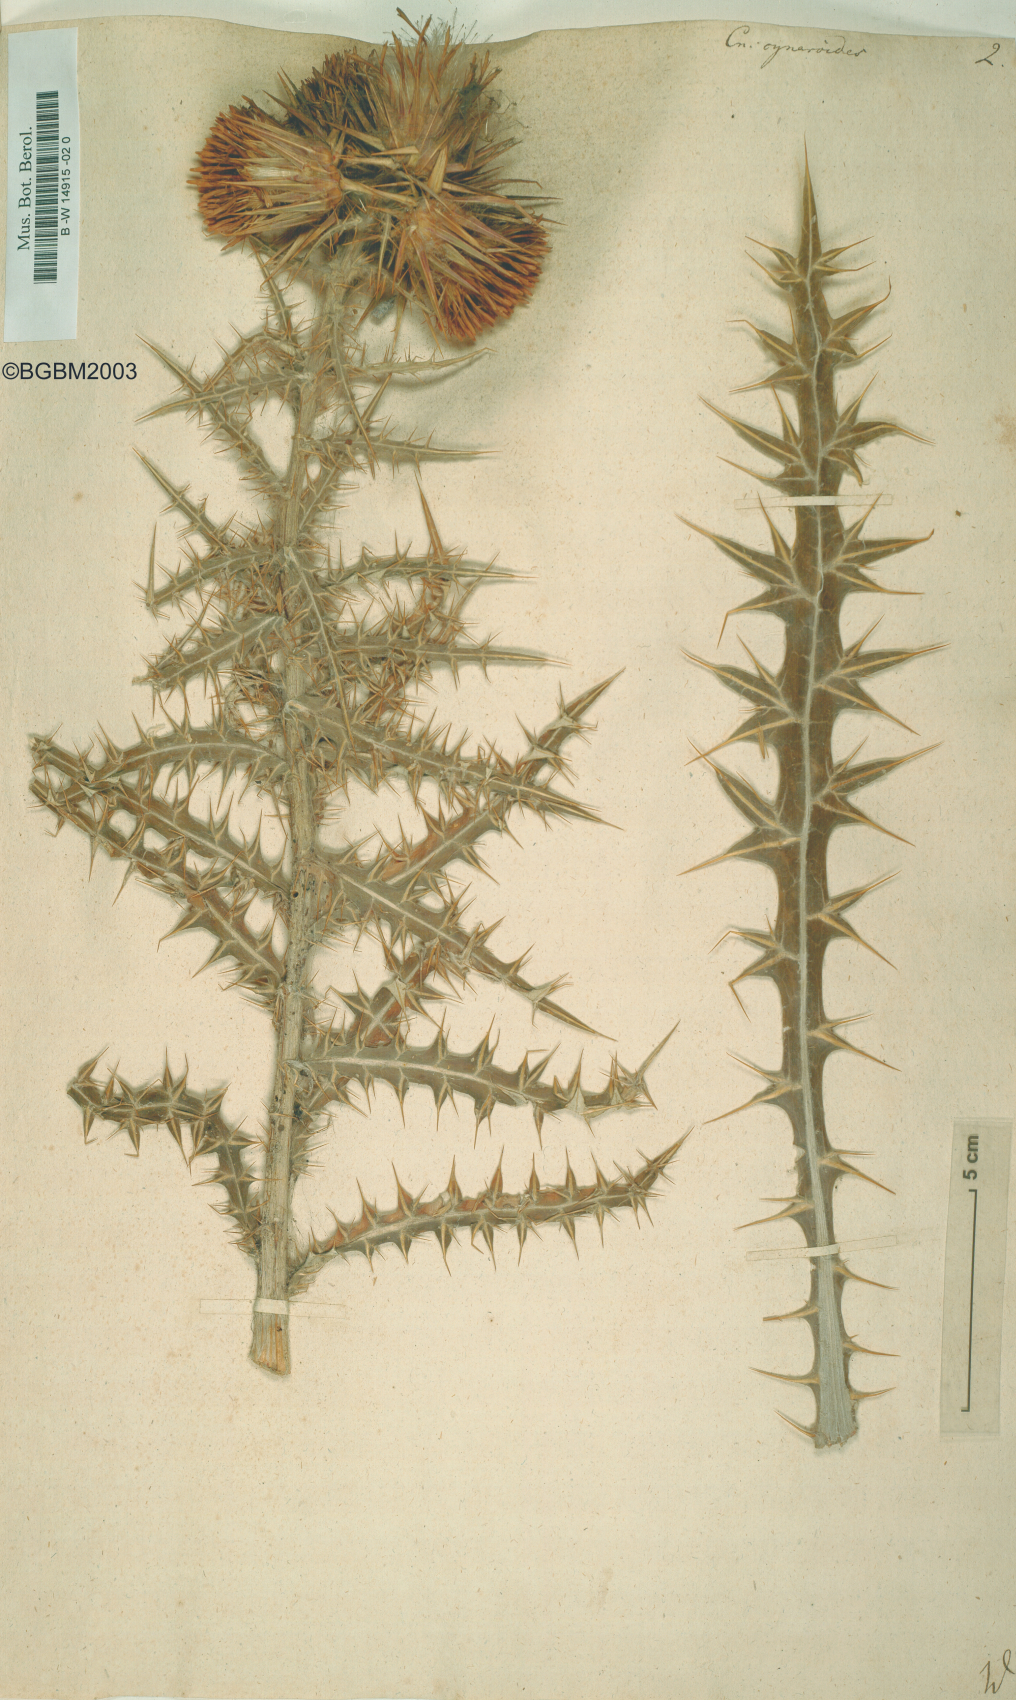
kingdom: Plantae
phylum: Tracheophyta
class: Magnoliopsida
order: Asterales
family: Asteraceae
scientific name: Asteraceae
